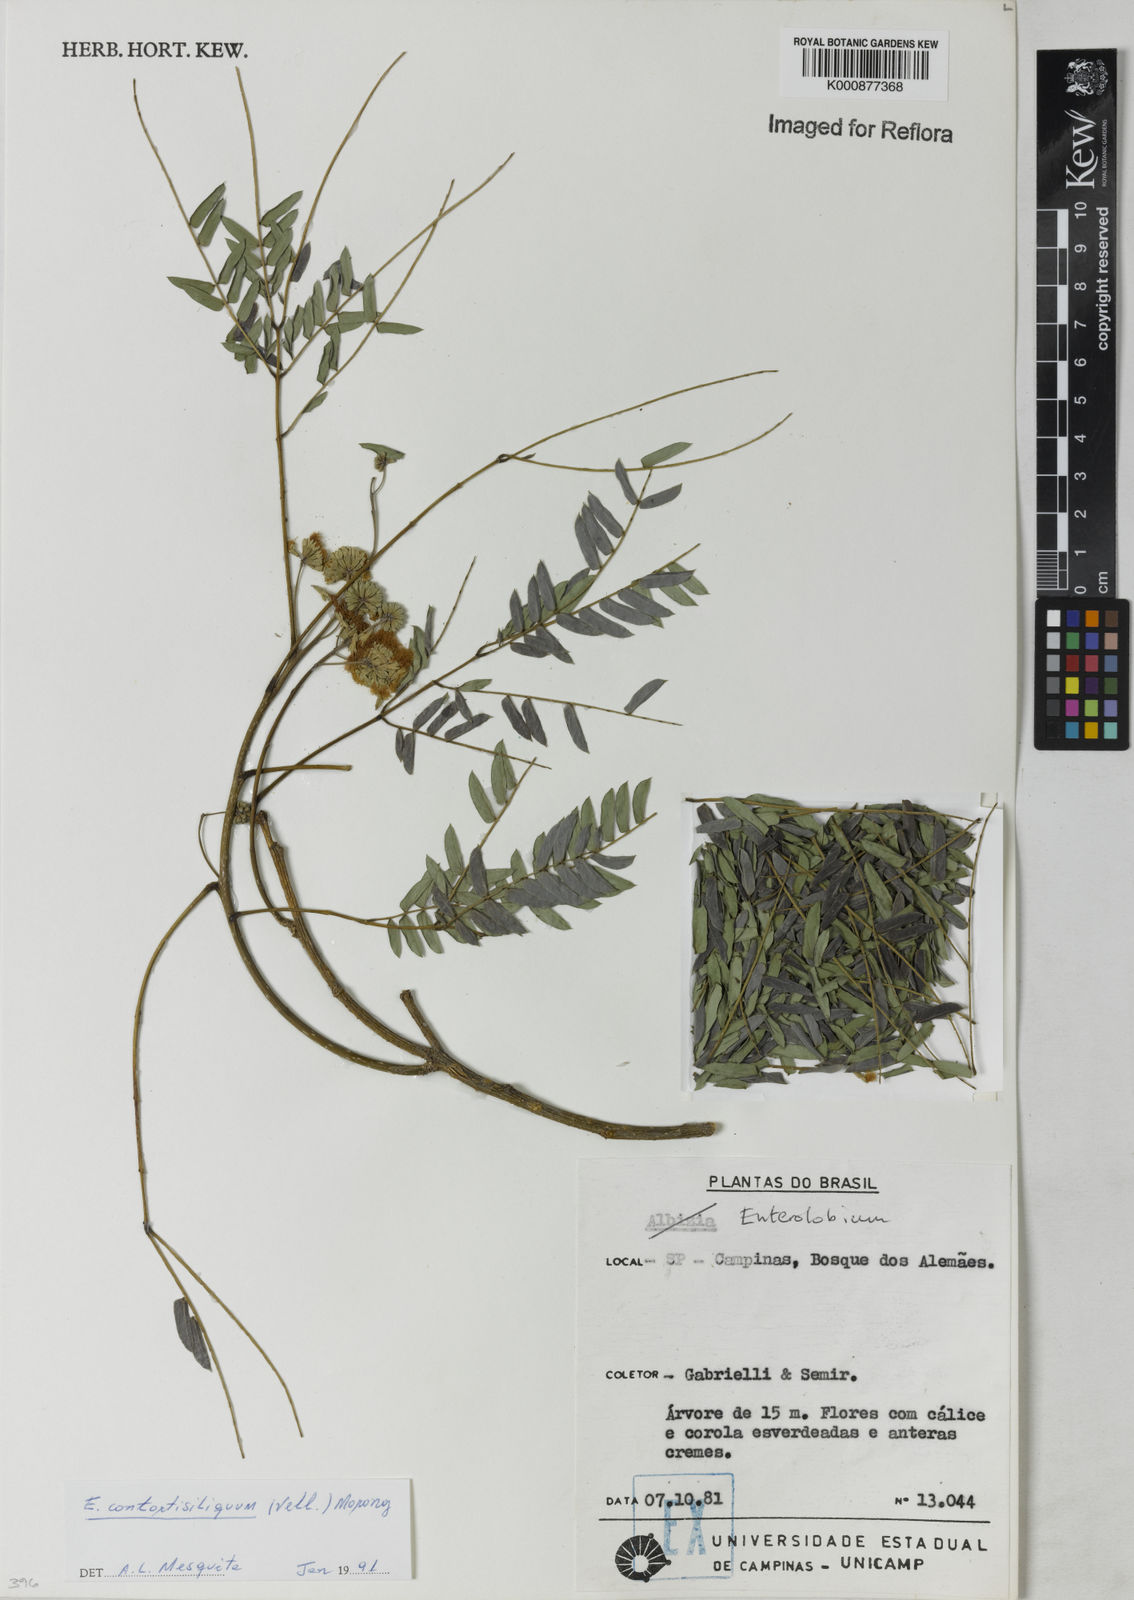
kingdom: Plantae
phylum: Tracheophyta
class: Magnoliopsida
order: Fabales
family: Fabaceae
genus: Enterolobium
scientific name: Enterolobium contortisiliquum
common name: Pacara earpod tree
